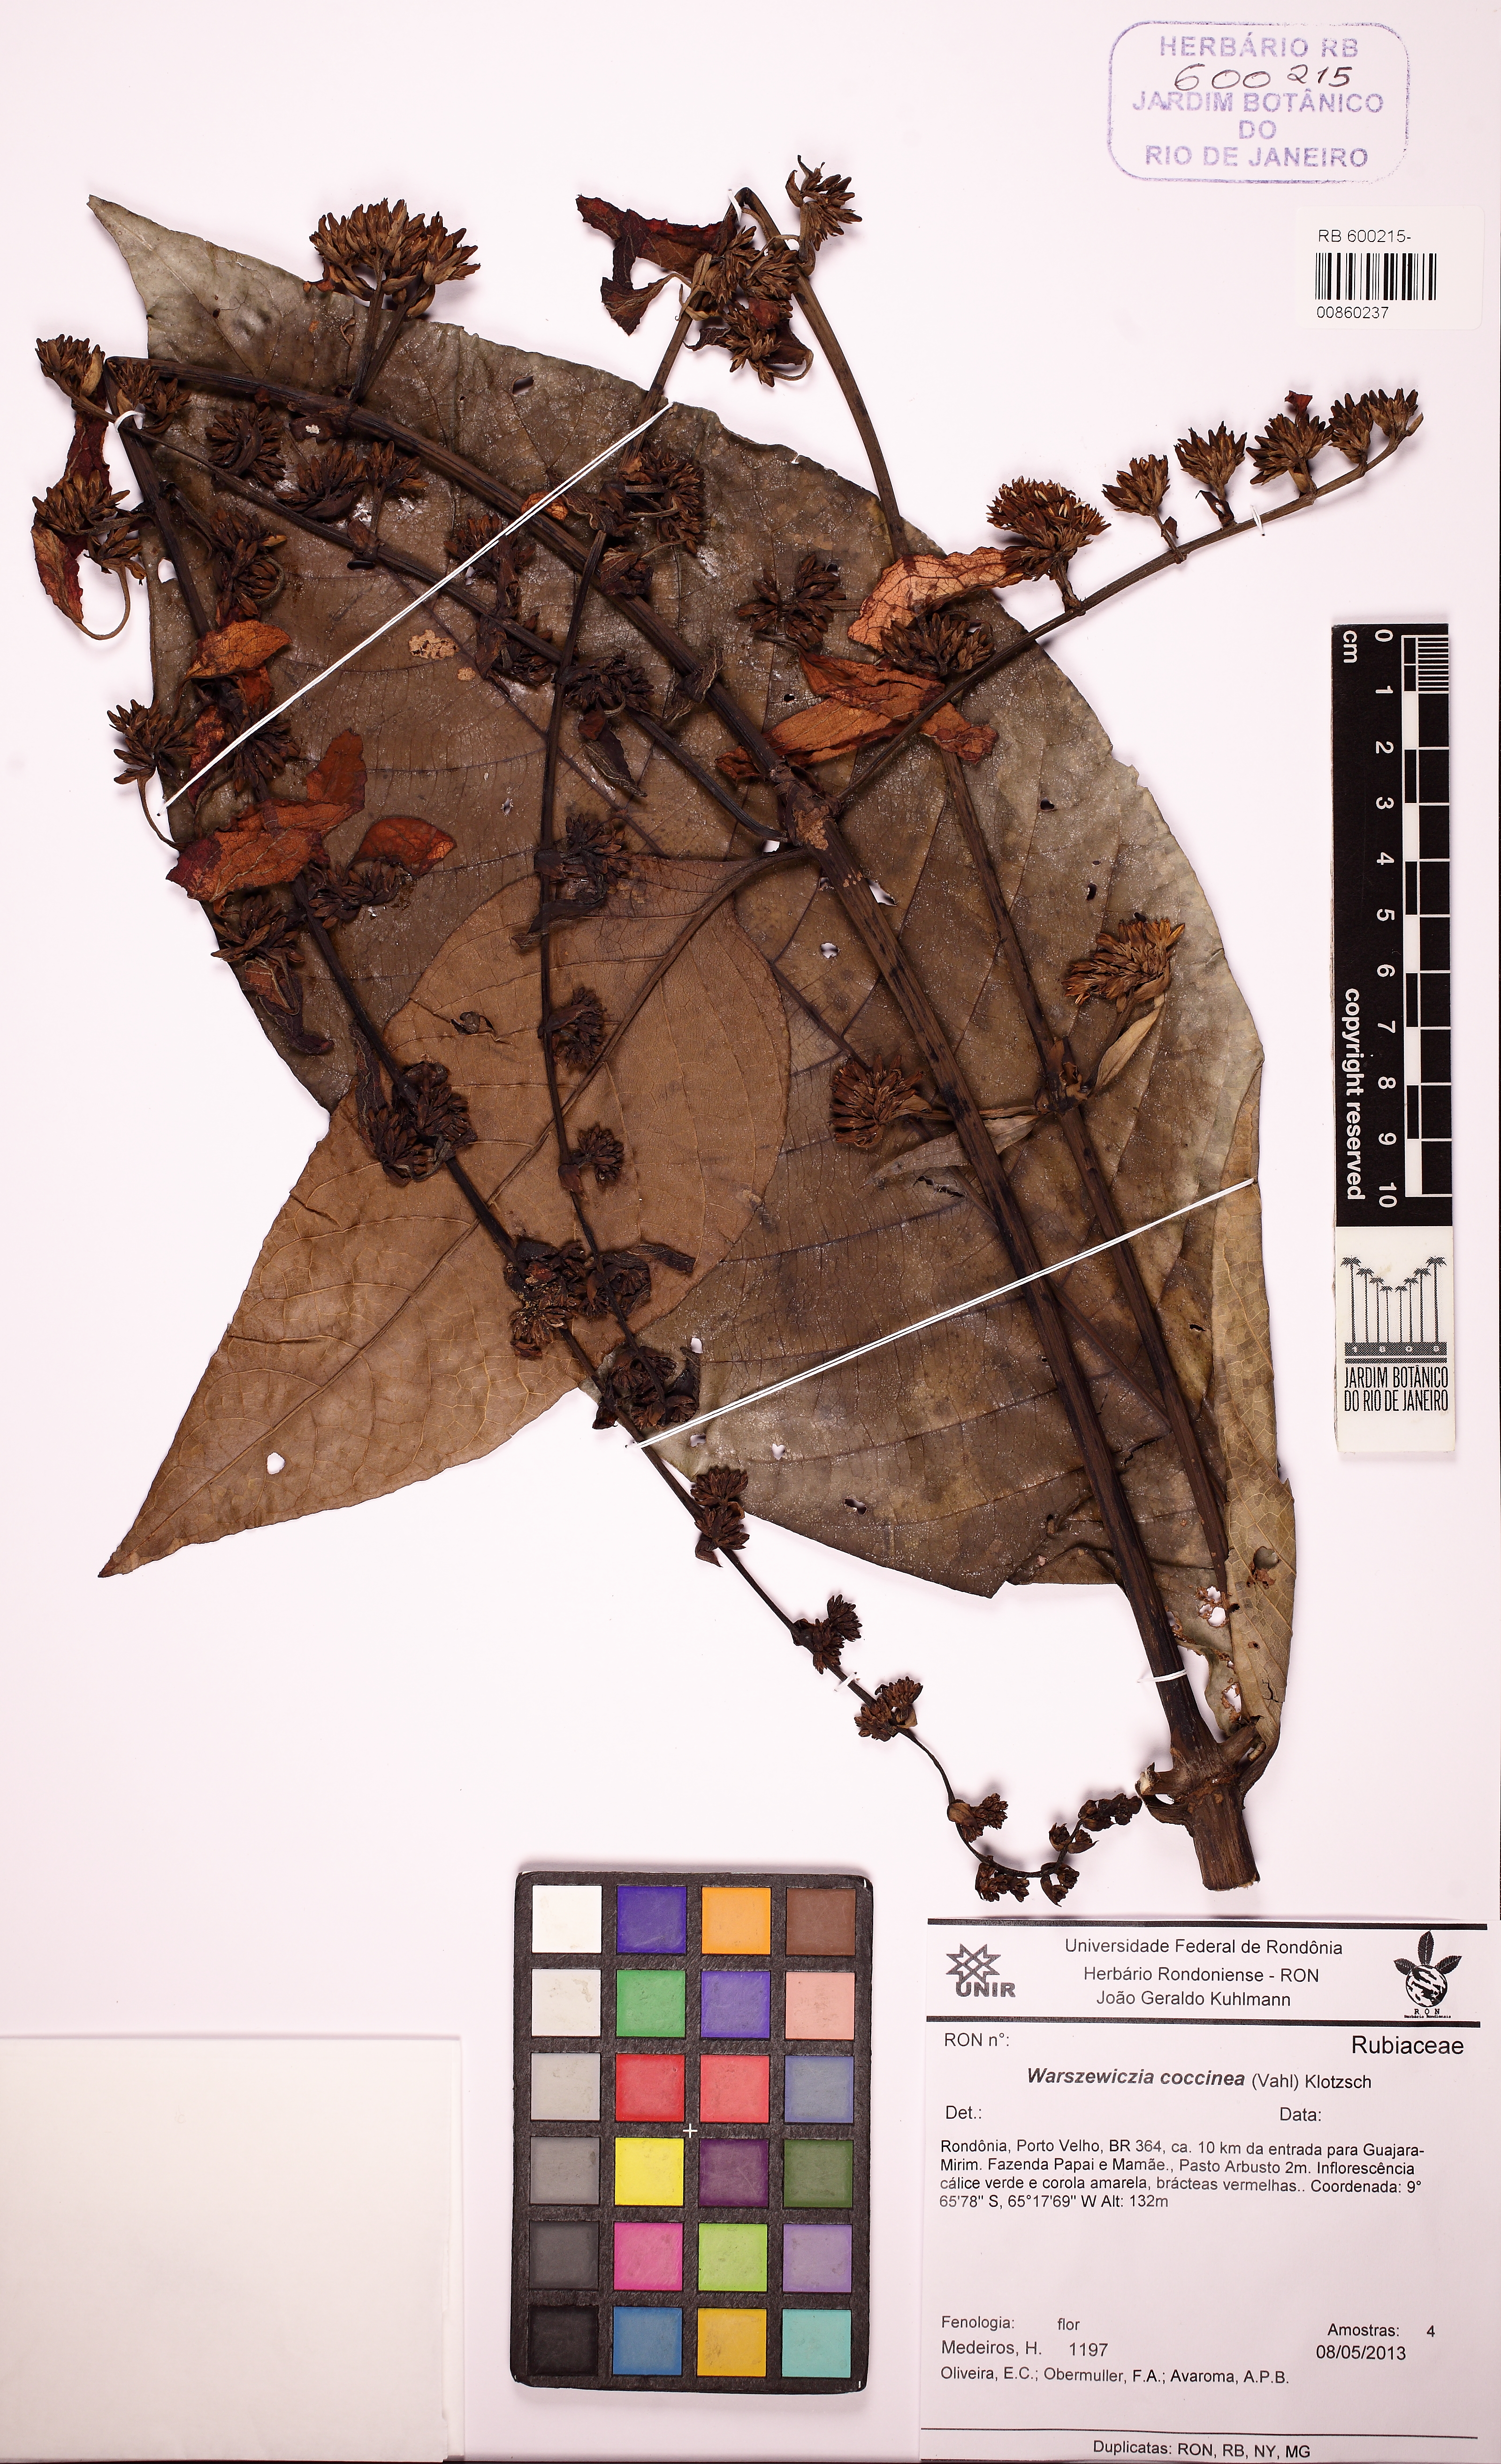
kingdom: Plantae
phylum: Tracheophyta
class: Magnoliopsida
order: Gentianales
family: Rubiaceae
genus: Warszewiczia
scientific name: Warszewiczia coccinea
